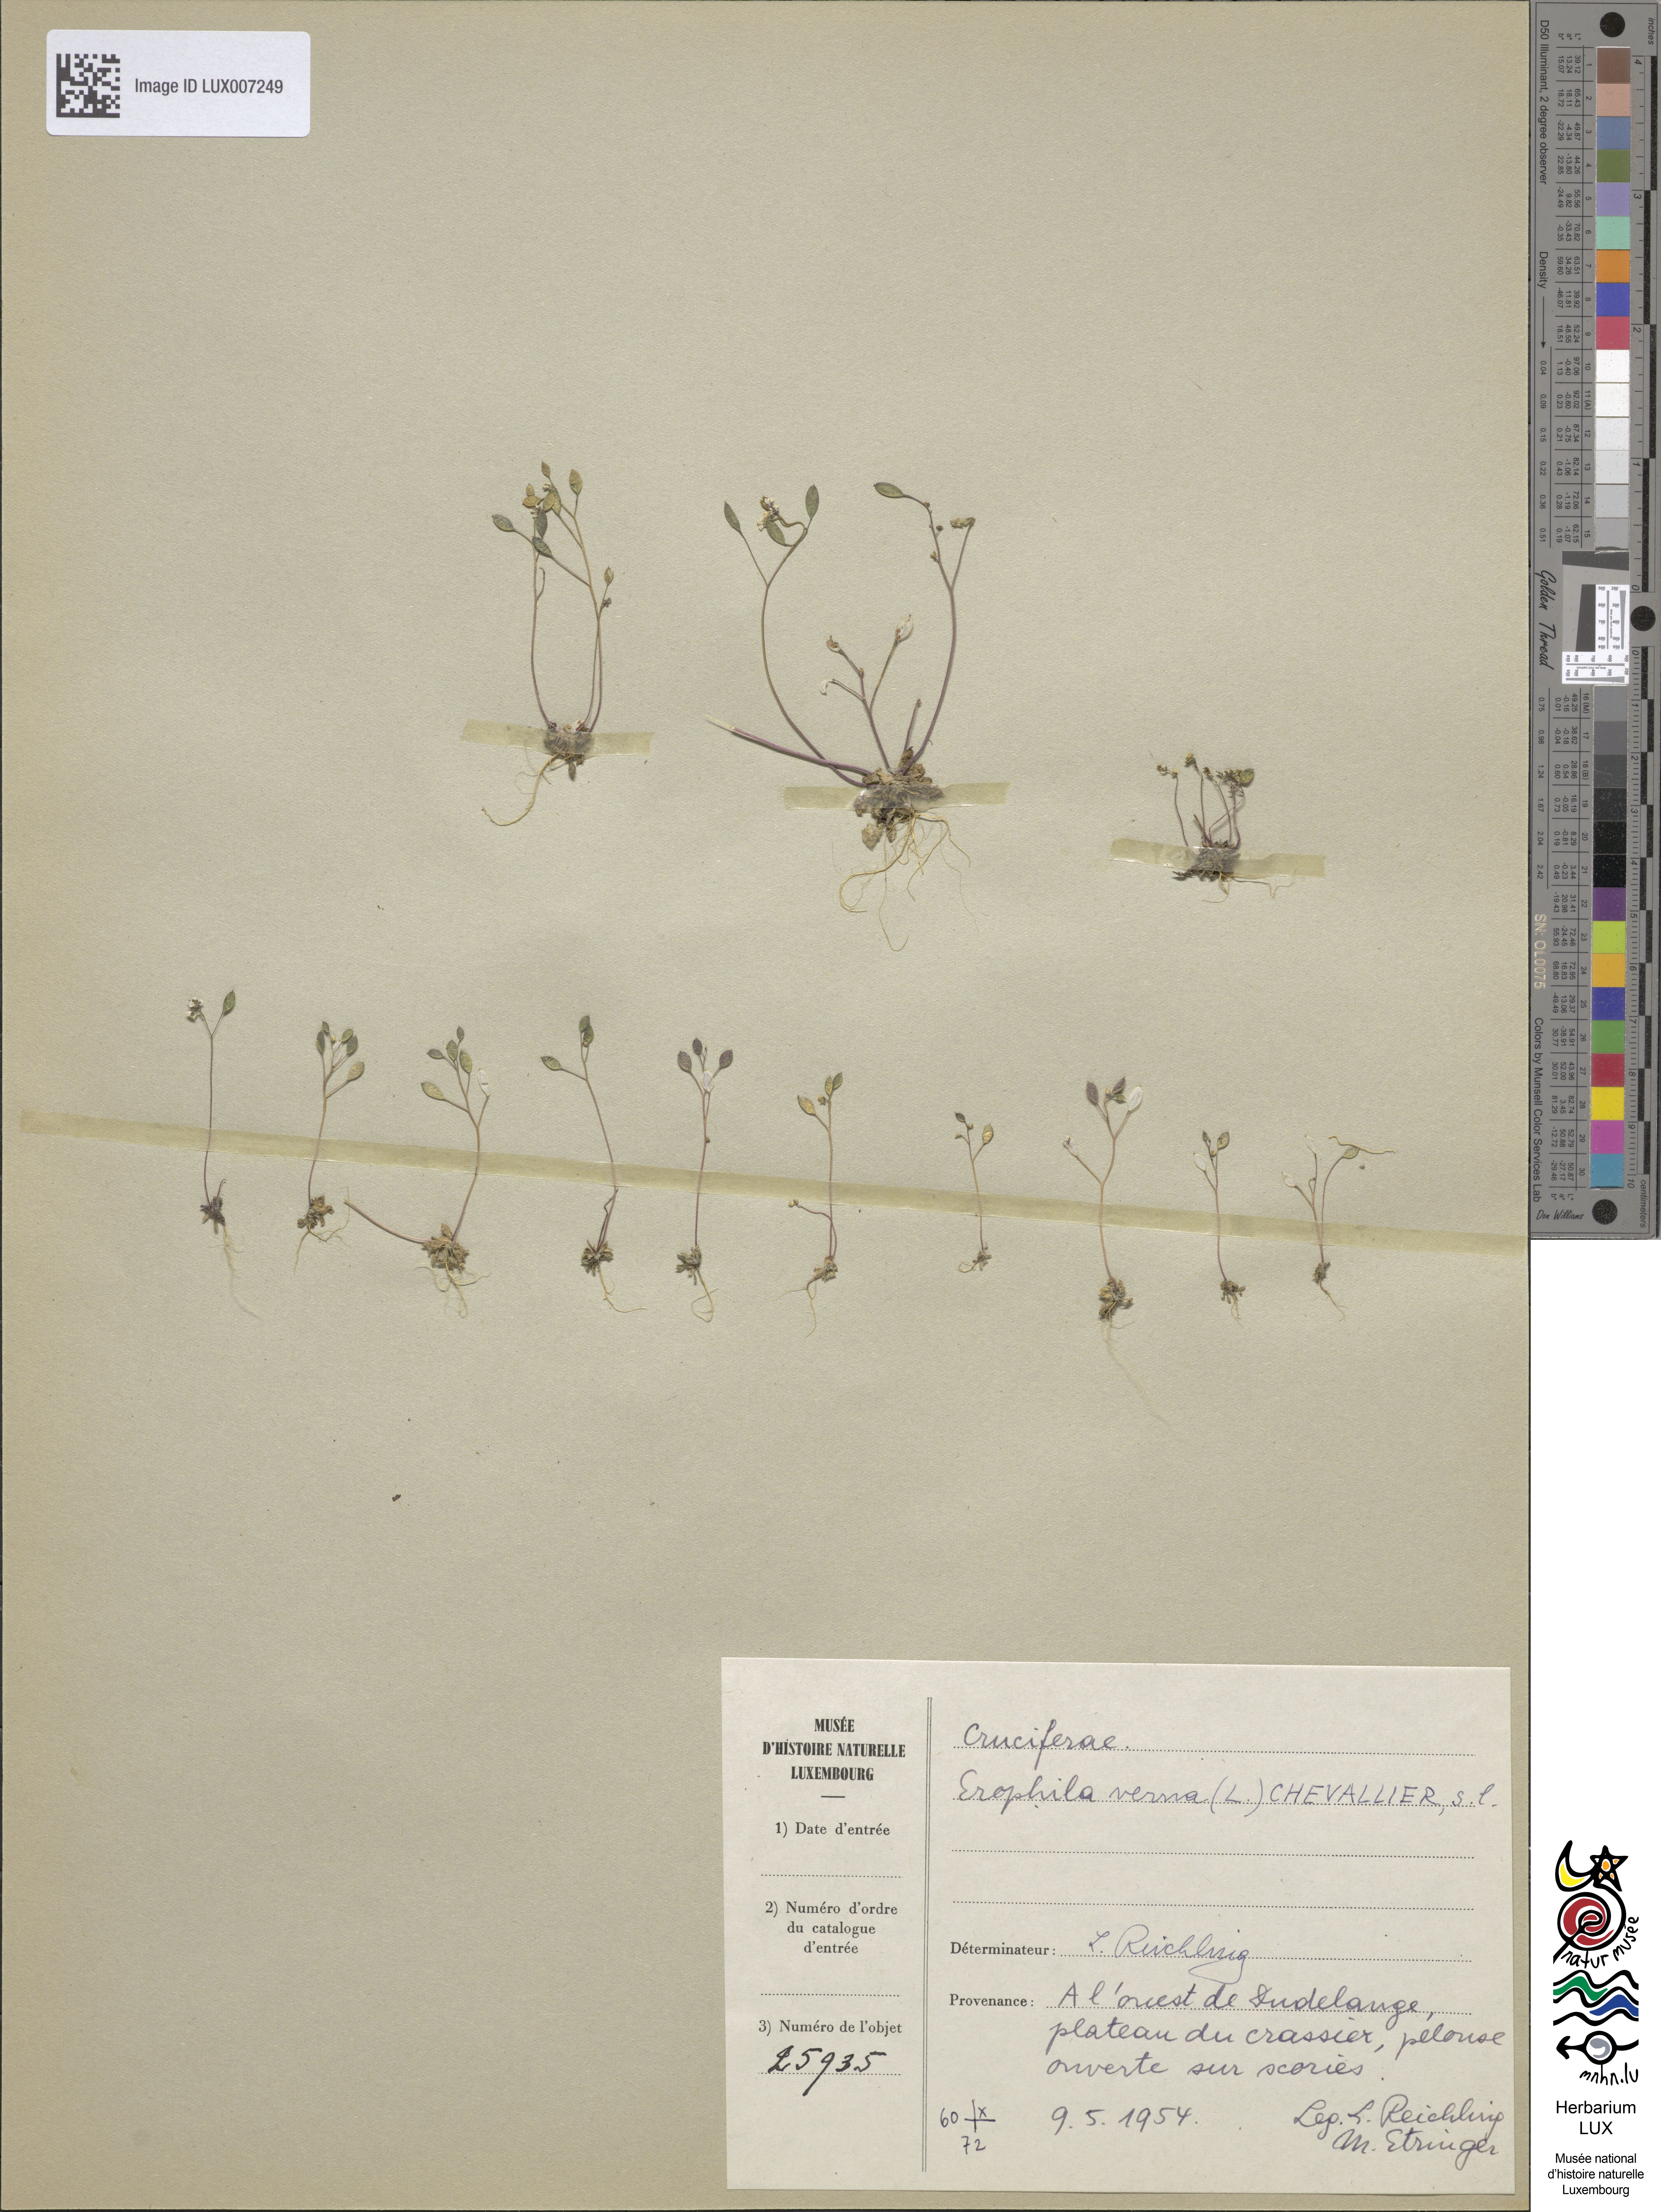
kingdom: Plantae
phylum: Tracheophyta
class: Magnoliopsida
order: Brassicales
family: Brassicaceae
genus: Draba
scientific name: Draba verna
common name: Spring draba
